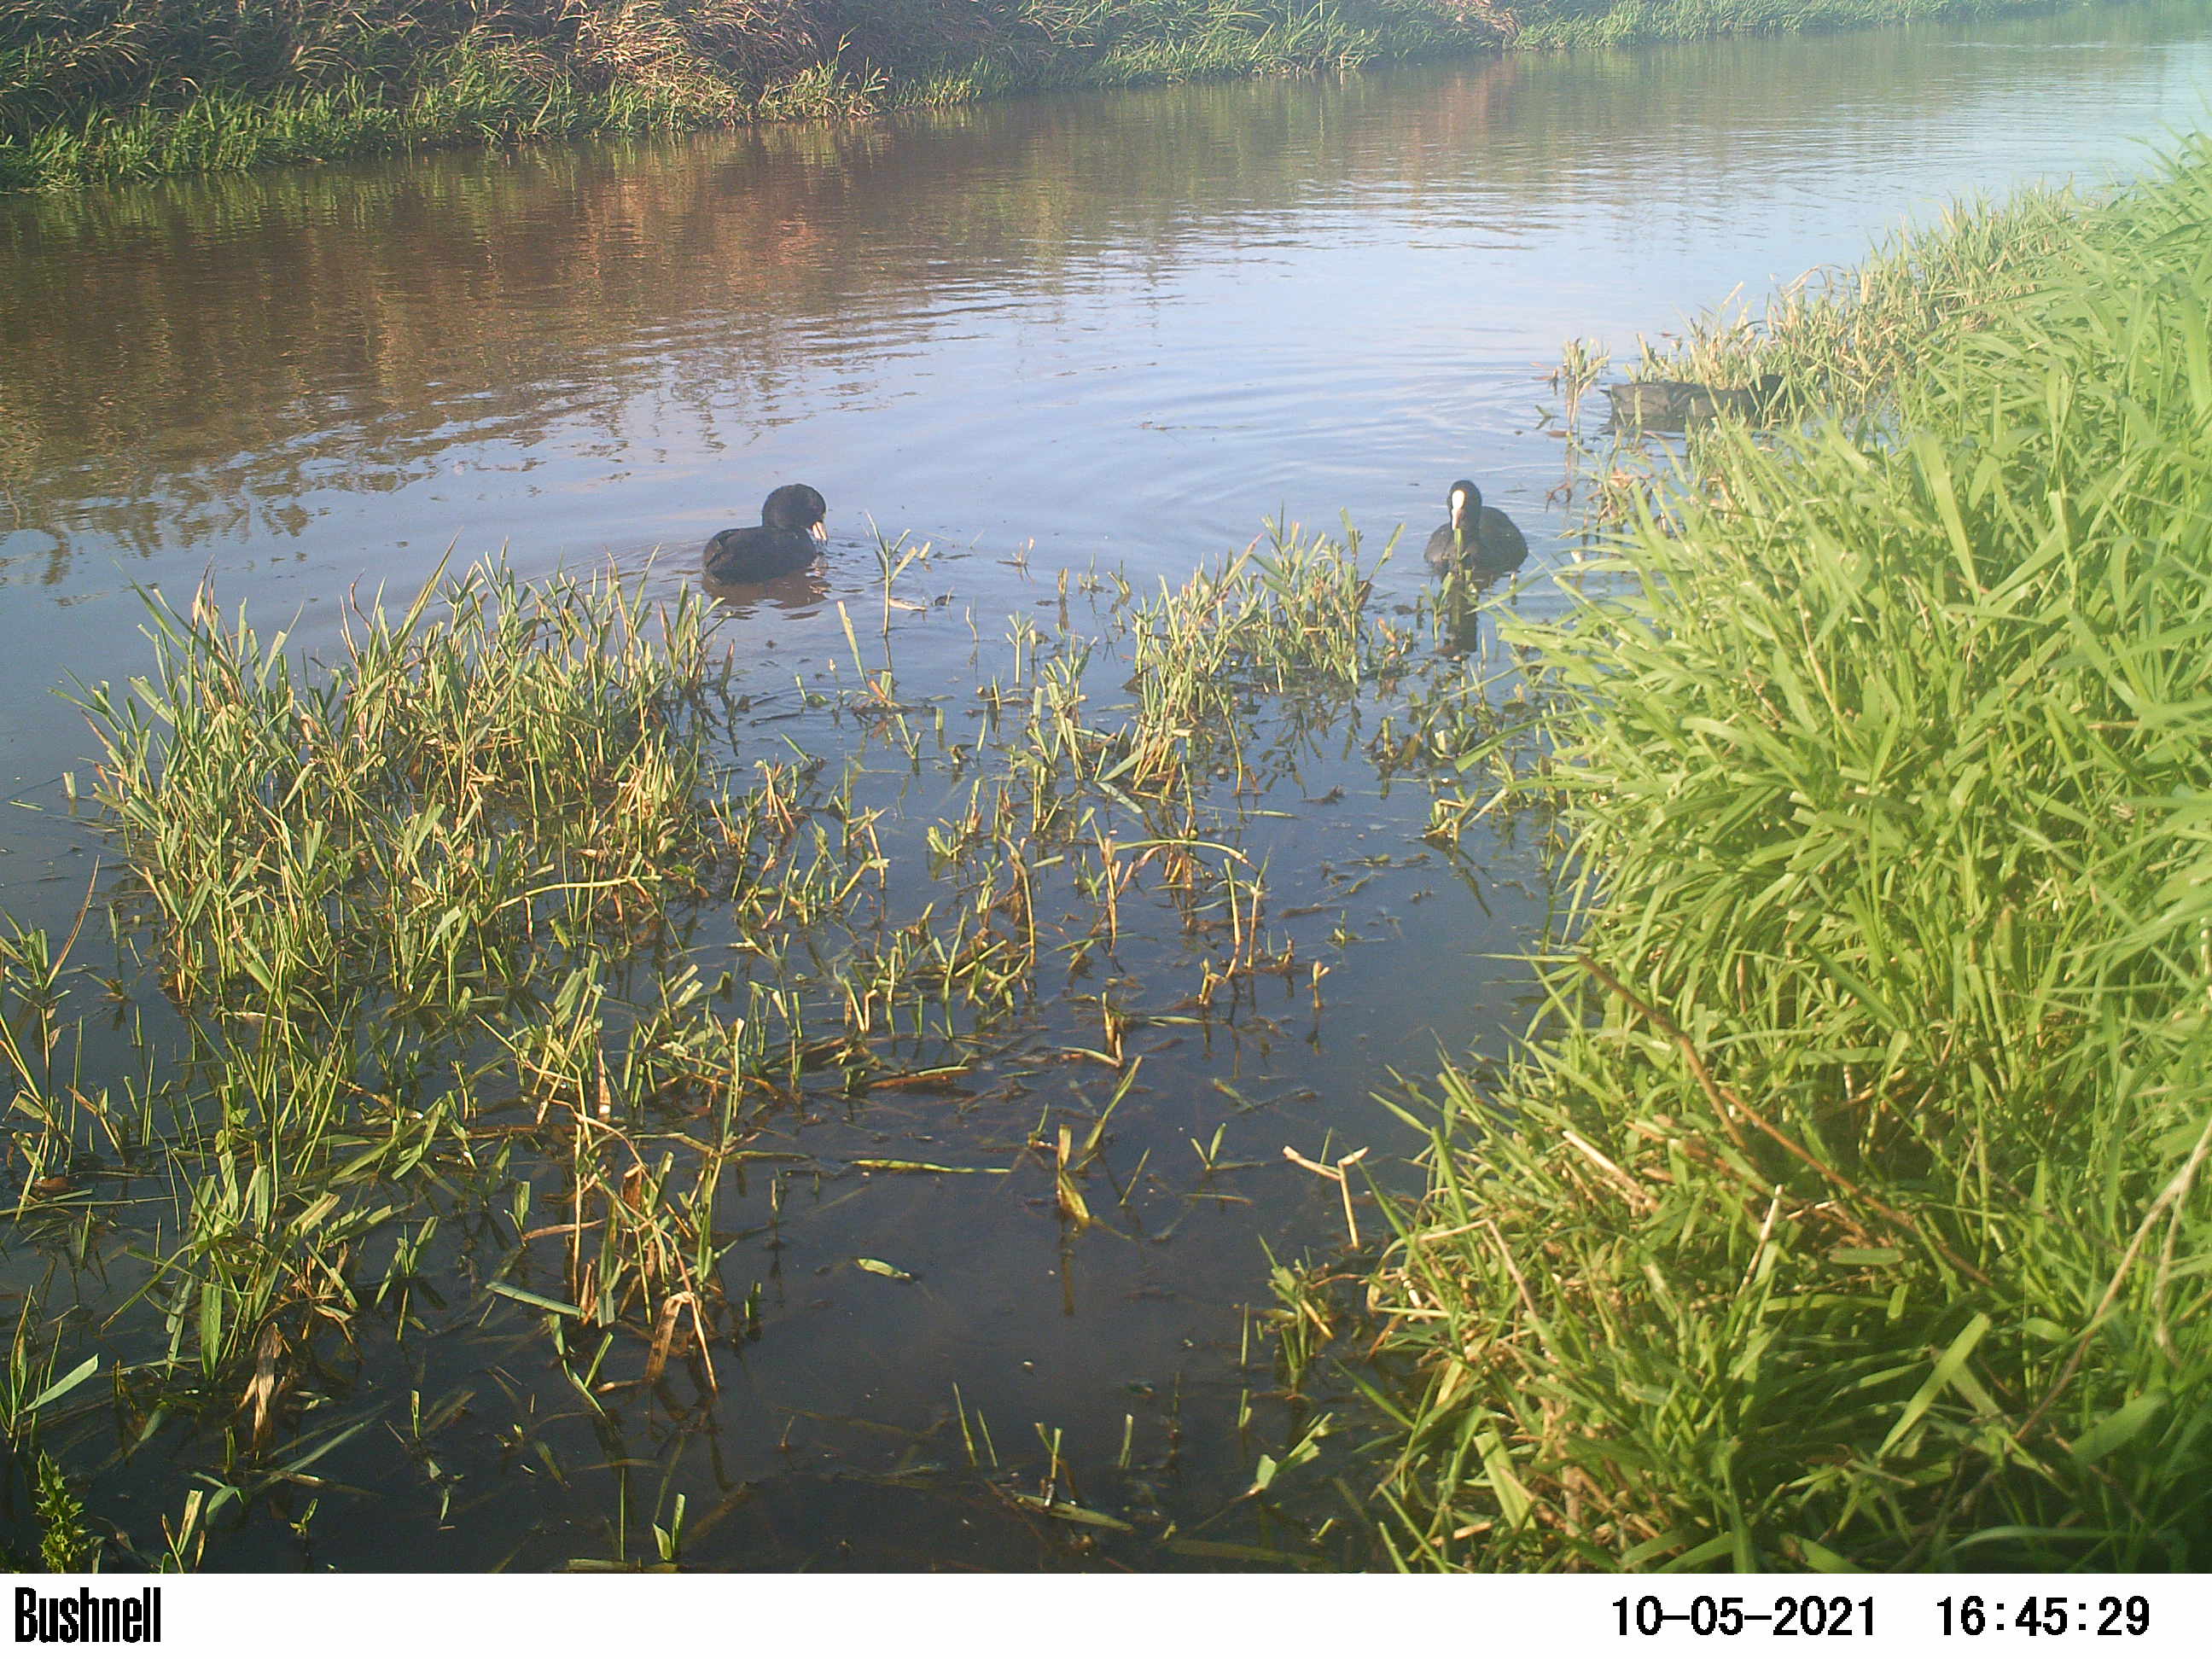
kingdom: Animalia
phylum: Chordata
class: Aves
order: Gruiformes
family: Rallidae
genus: Fulica
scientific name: Fulica atra
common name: Eurasian coot
